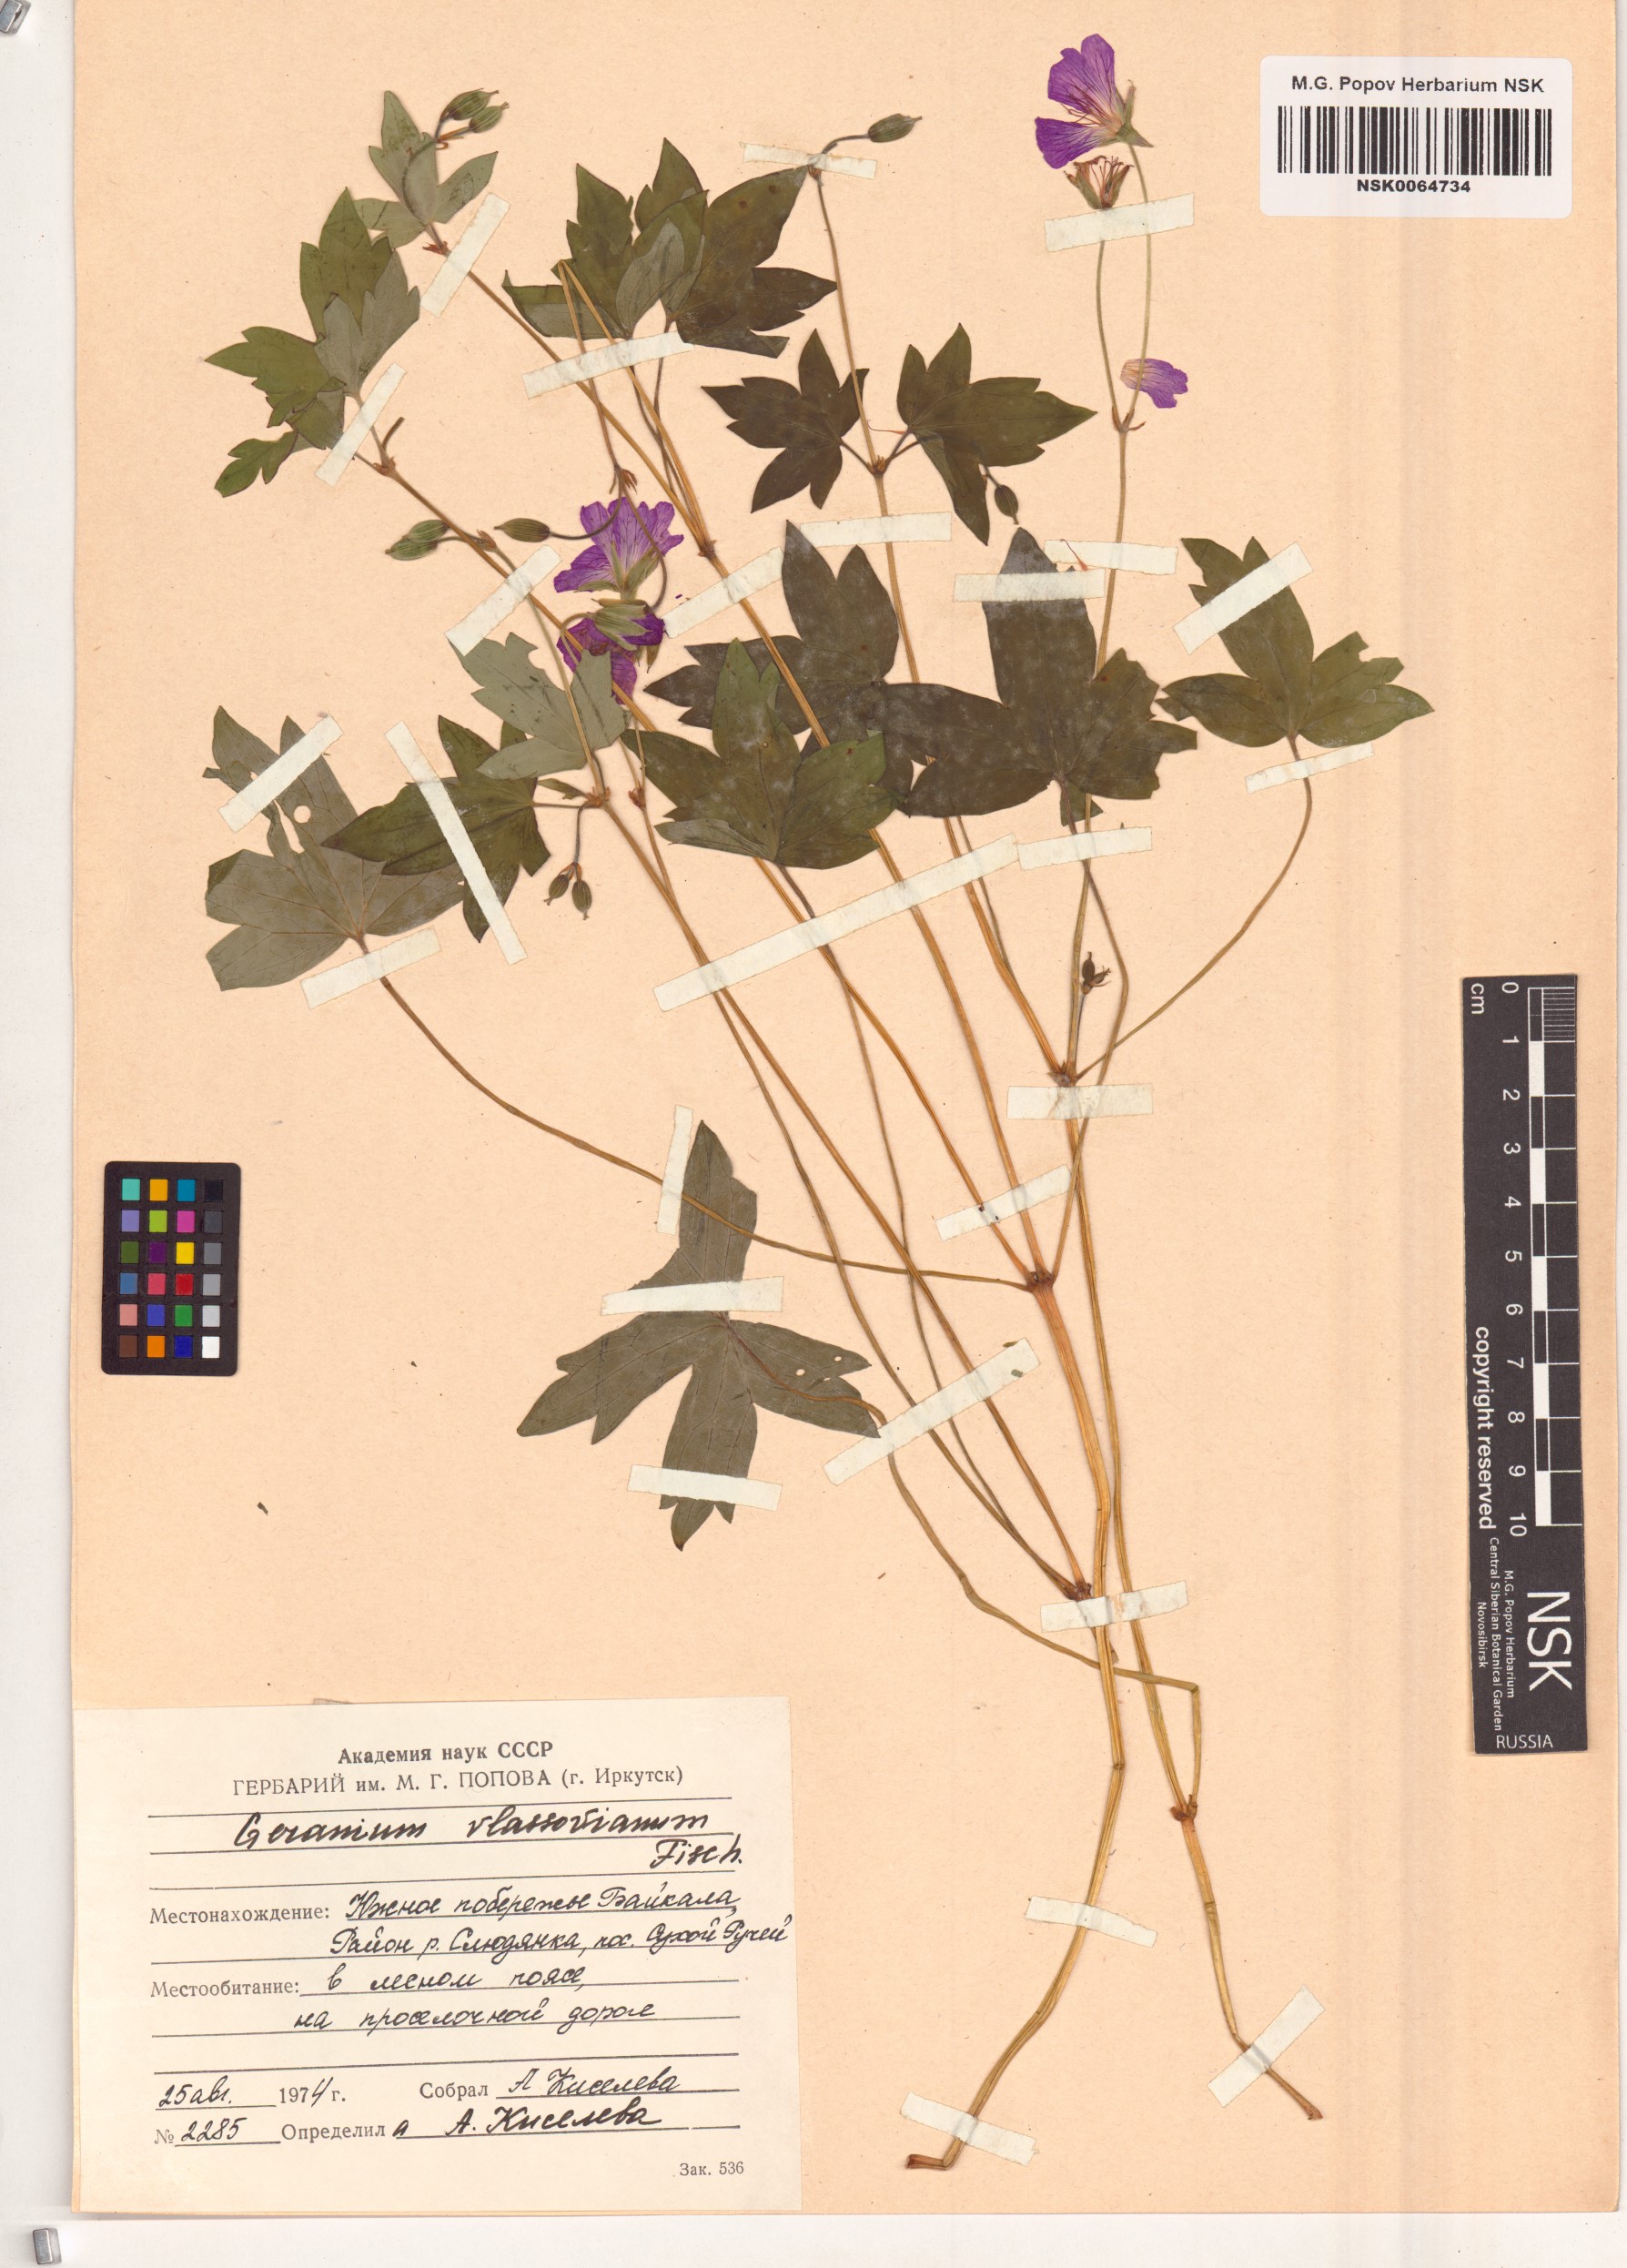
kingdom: Plantae
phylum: Tracheophyta
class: Magnoliopsida
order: Geraniales
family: Geraniaceae
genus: Geranium
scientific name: Geranium wlassovianum
